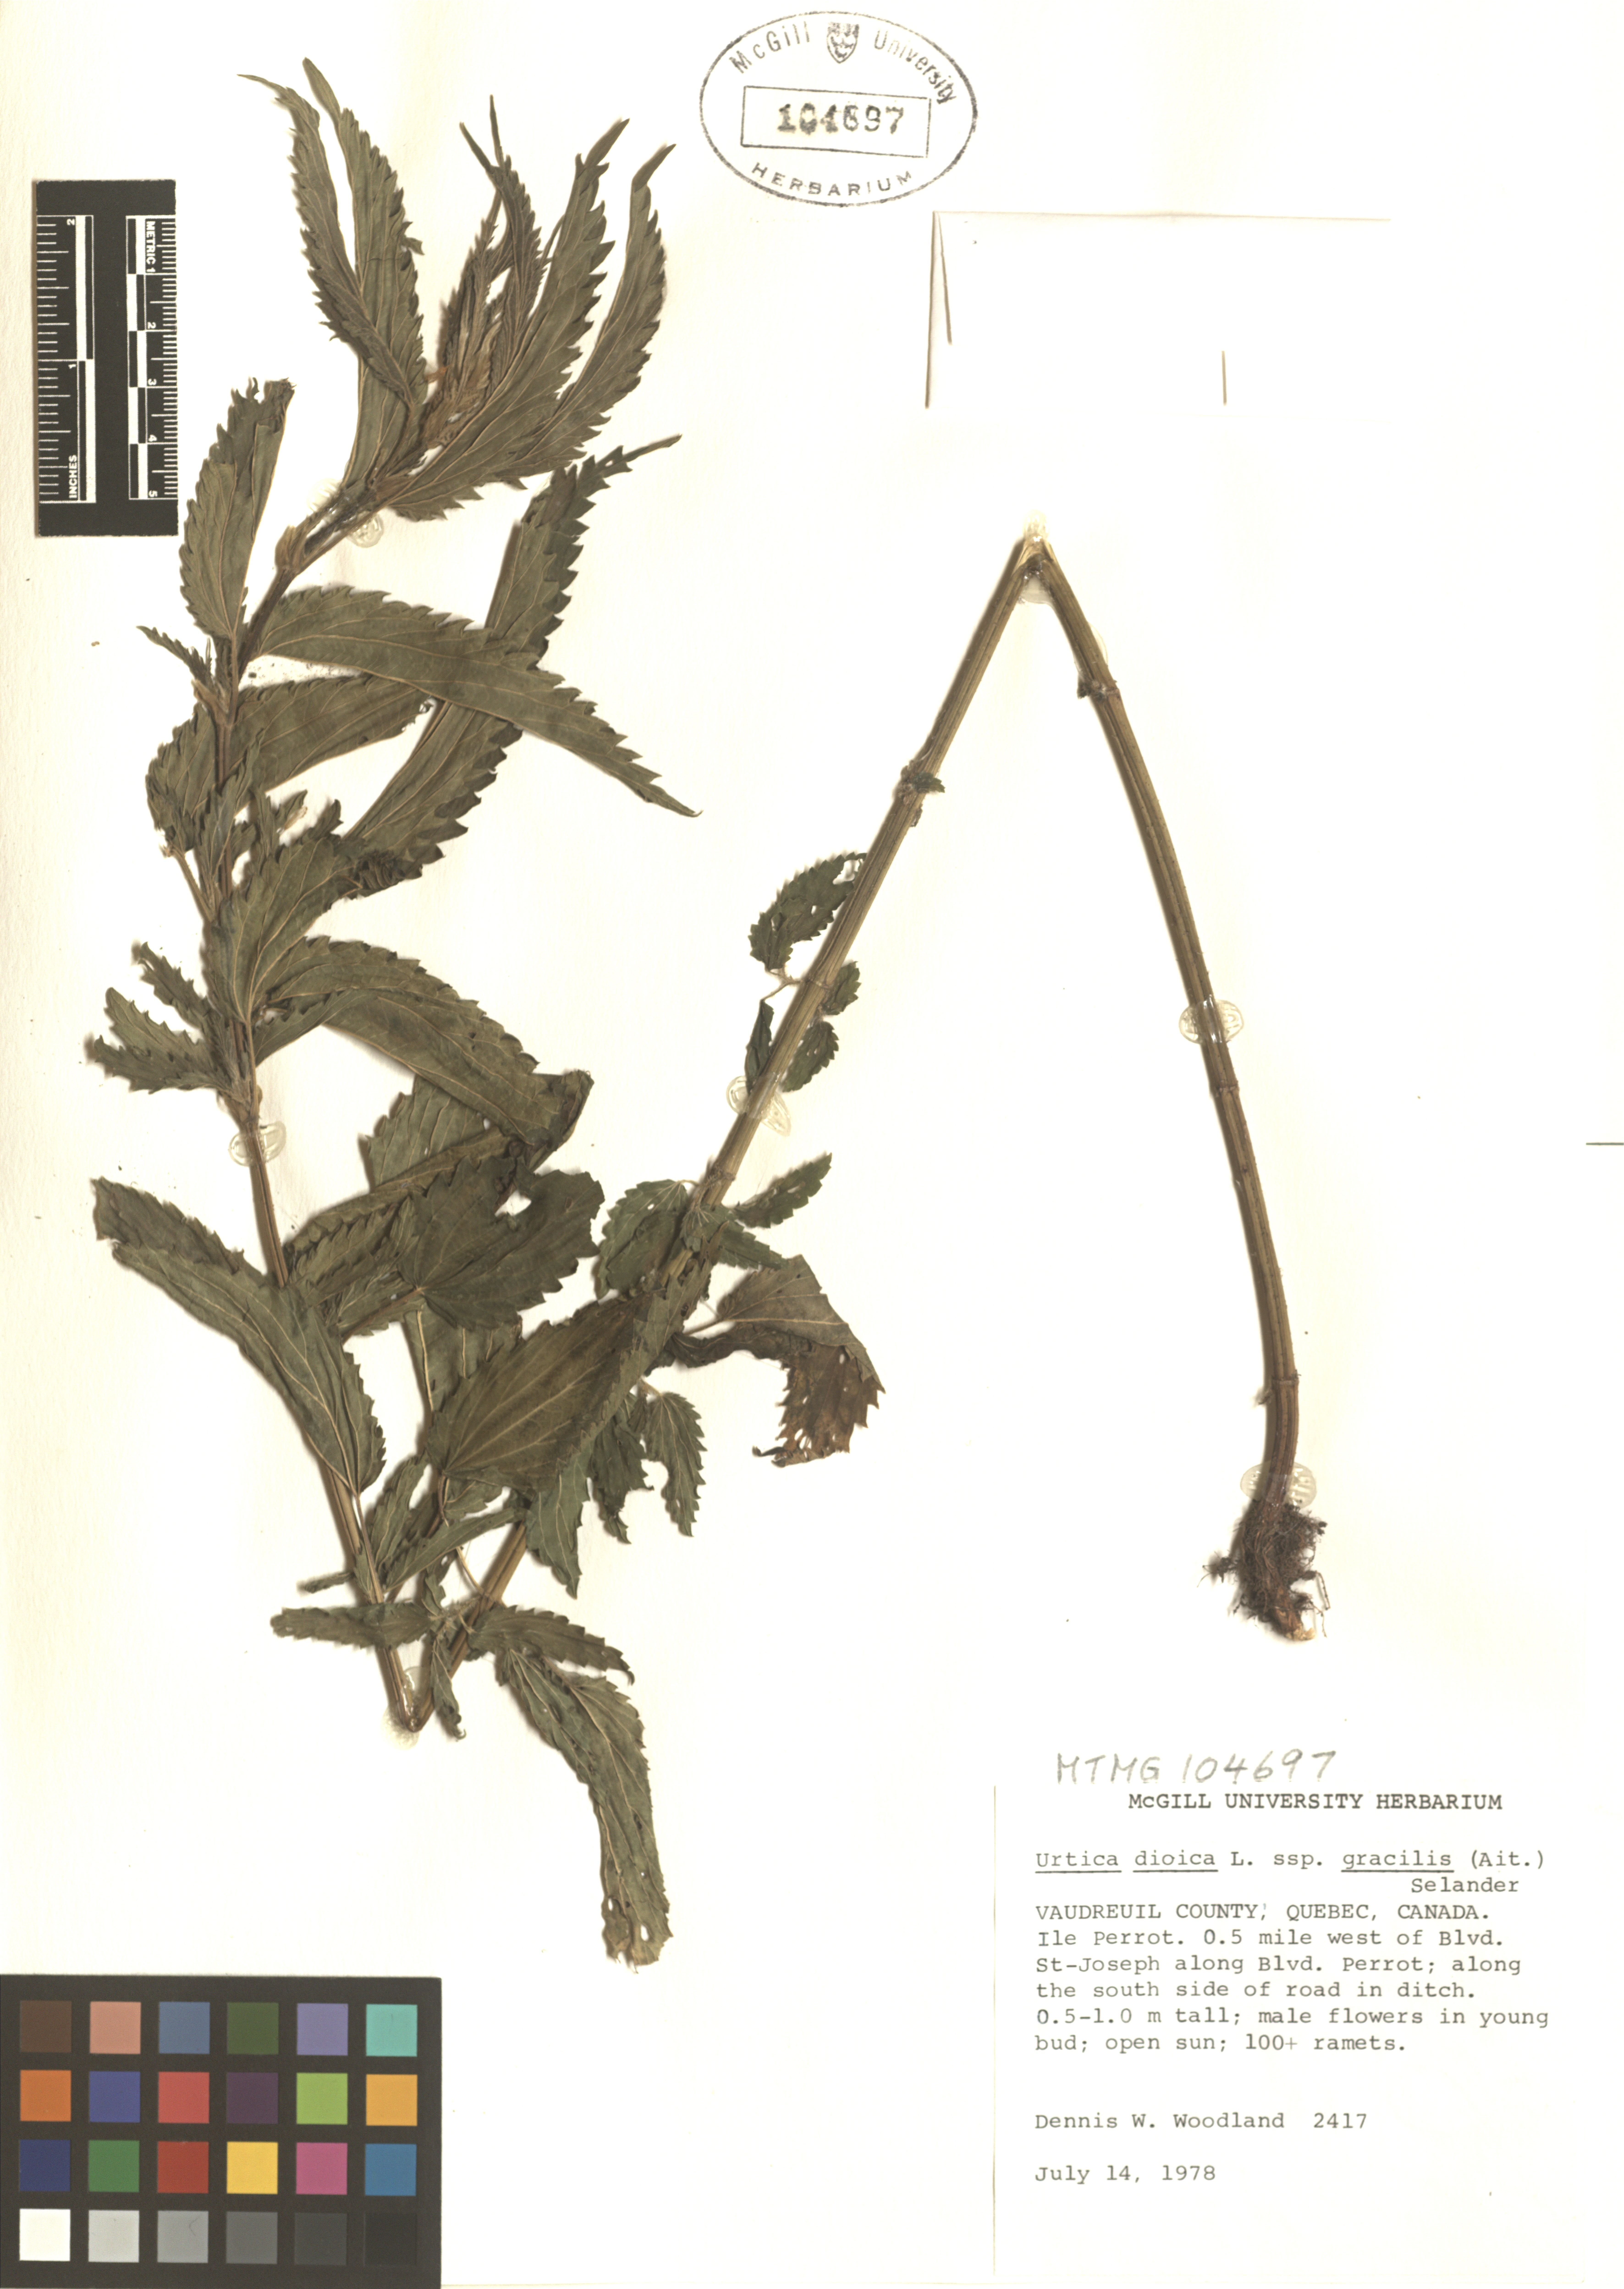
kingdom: Plantae
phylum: Tracheophyta
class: Magnoliopsida
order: Rosales
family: Urticaceae
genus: Urtica
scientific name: Urtica gracilis
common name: Slender stinging nettle
